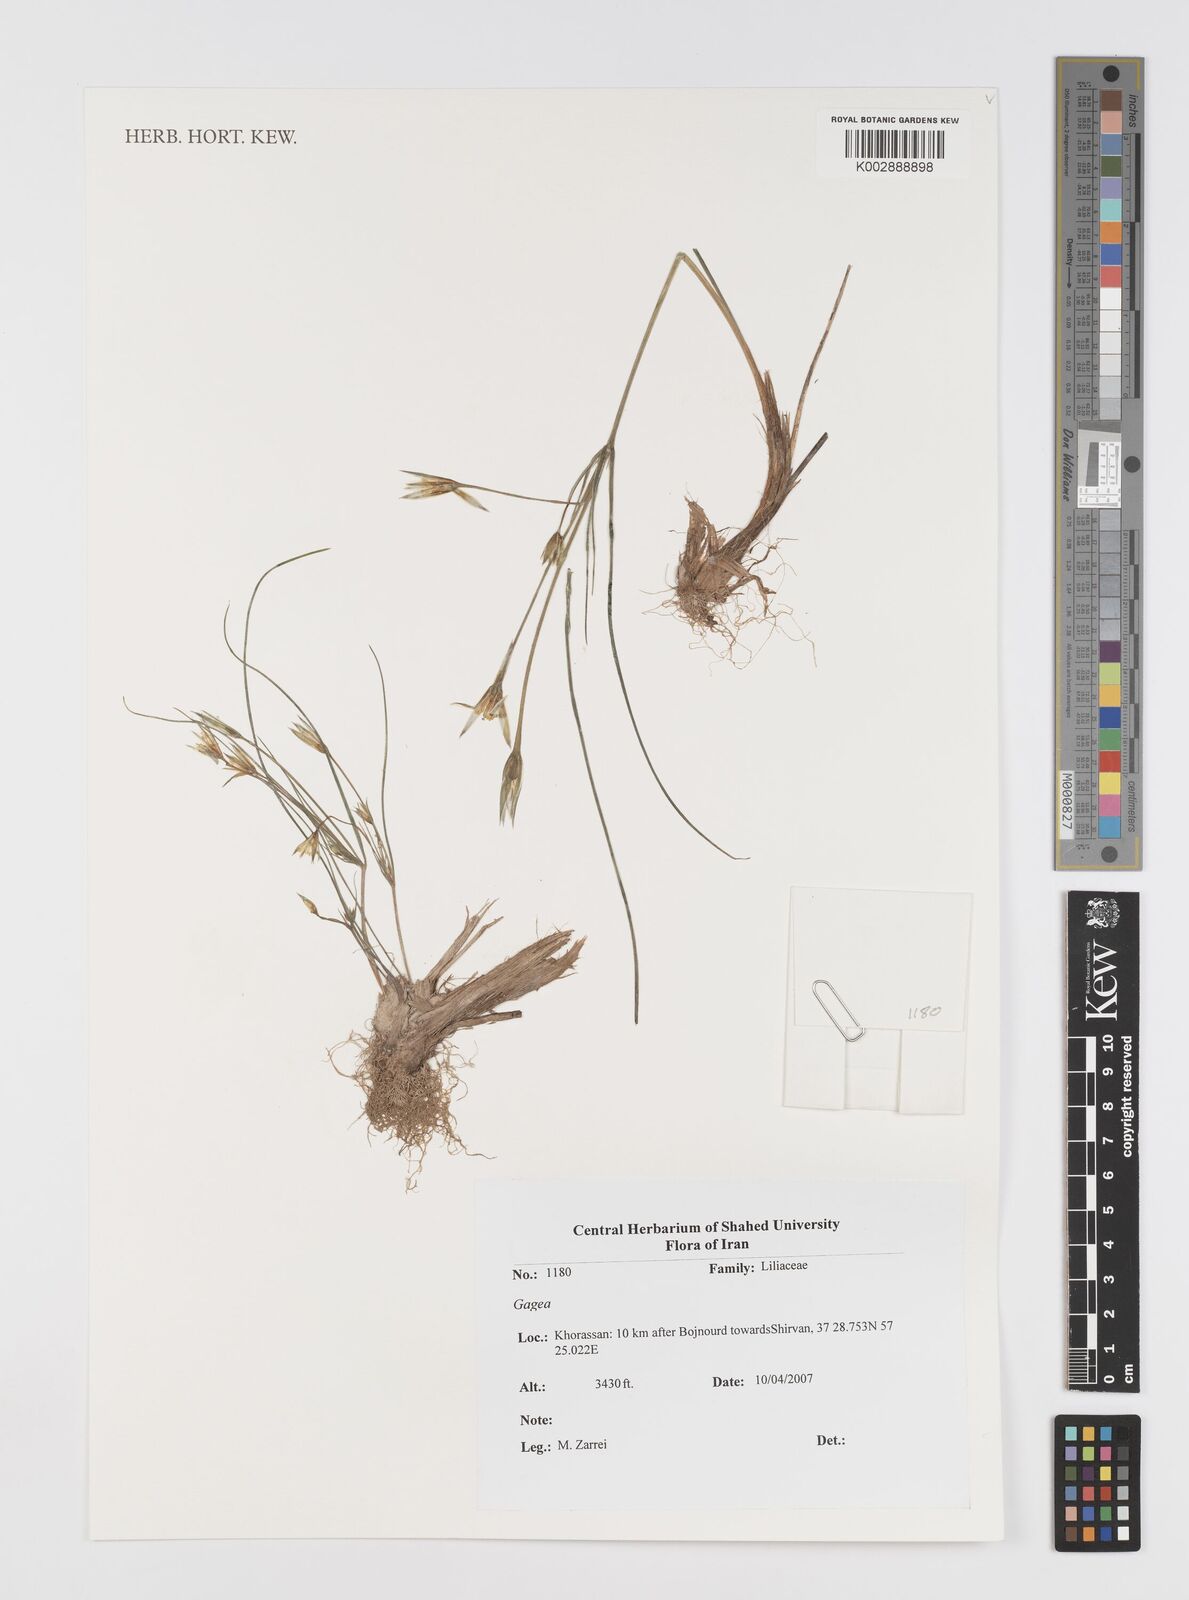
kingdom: Plantae
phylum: Tracheophyta
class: Liliopsida
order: Liliales
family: Liliaceae
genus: Gagea
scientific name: Gagea
